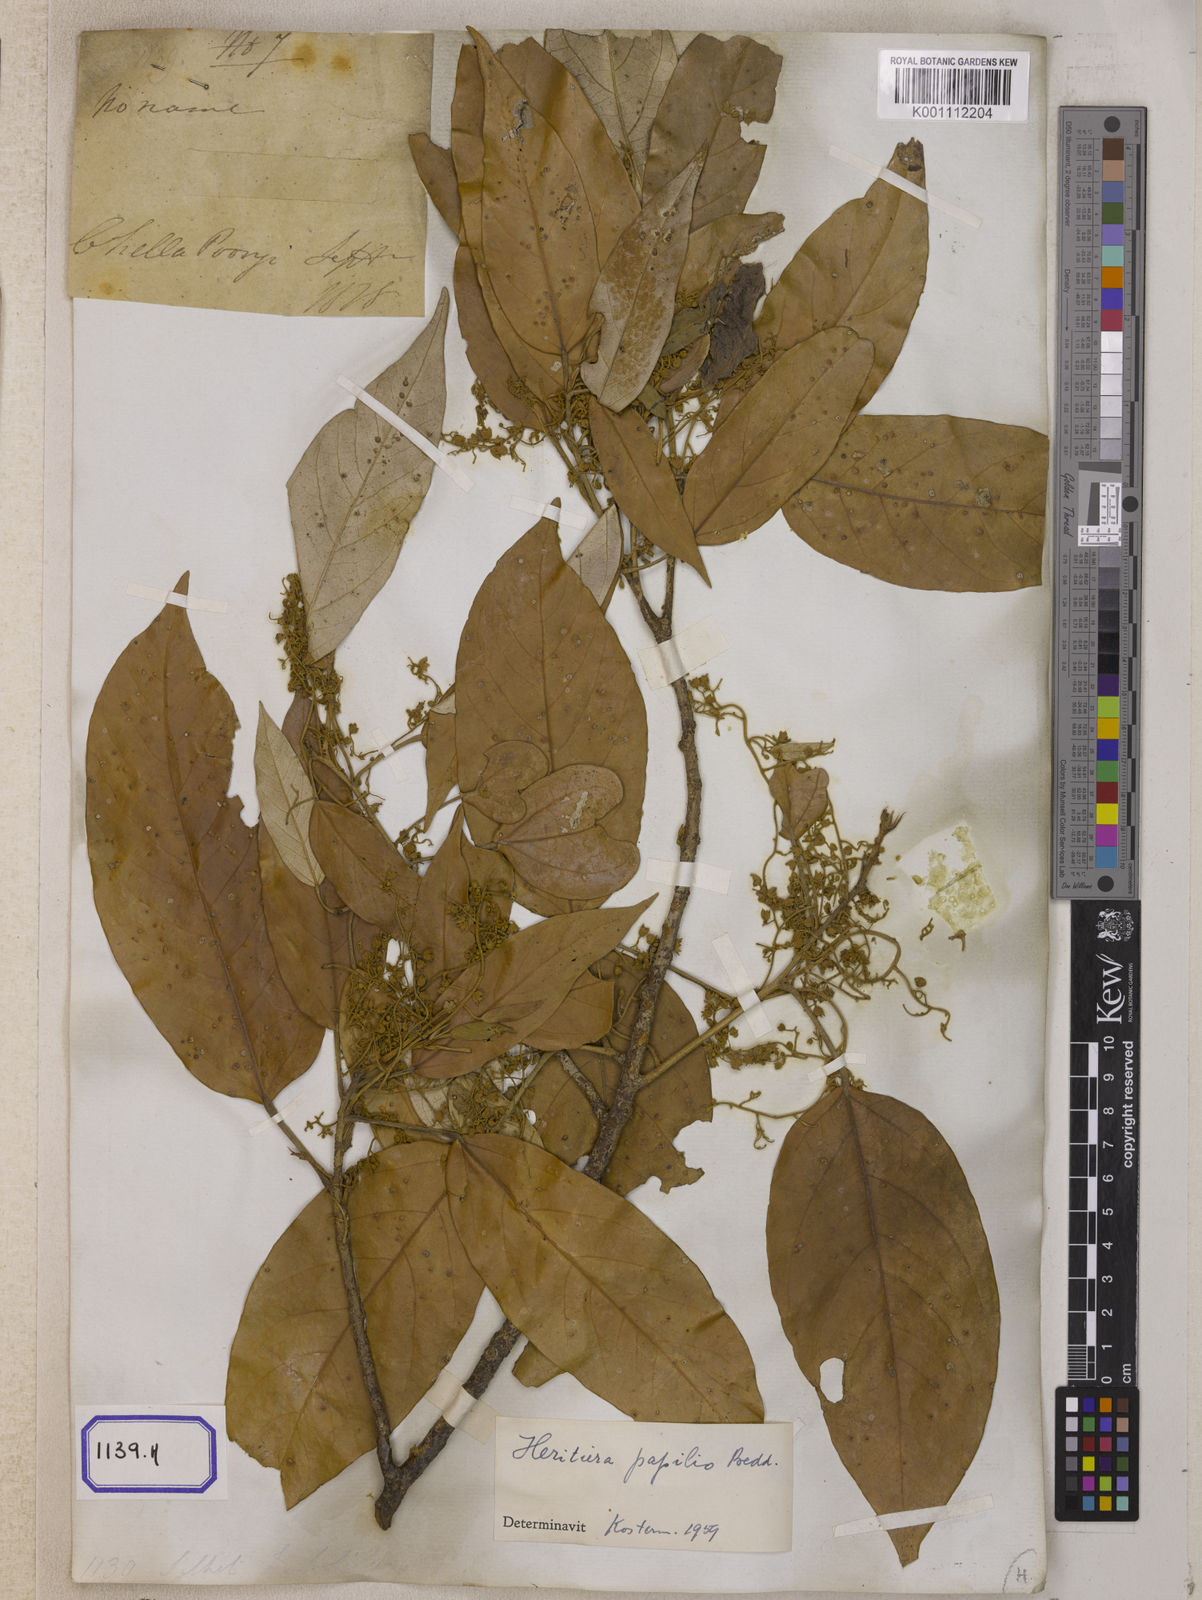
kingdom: Plantae
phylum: Tracheophyta
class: Magnoliopsida
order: Malvales
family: Malvaceae
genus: Heritiera
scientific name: Heritiera
